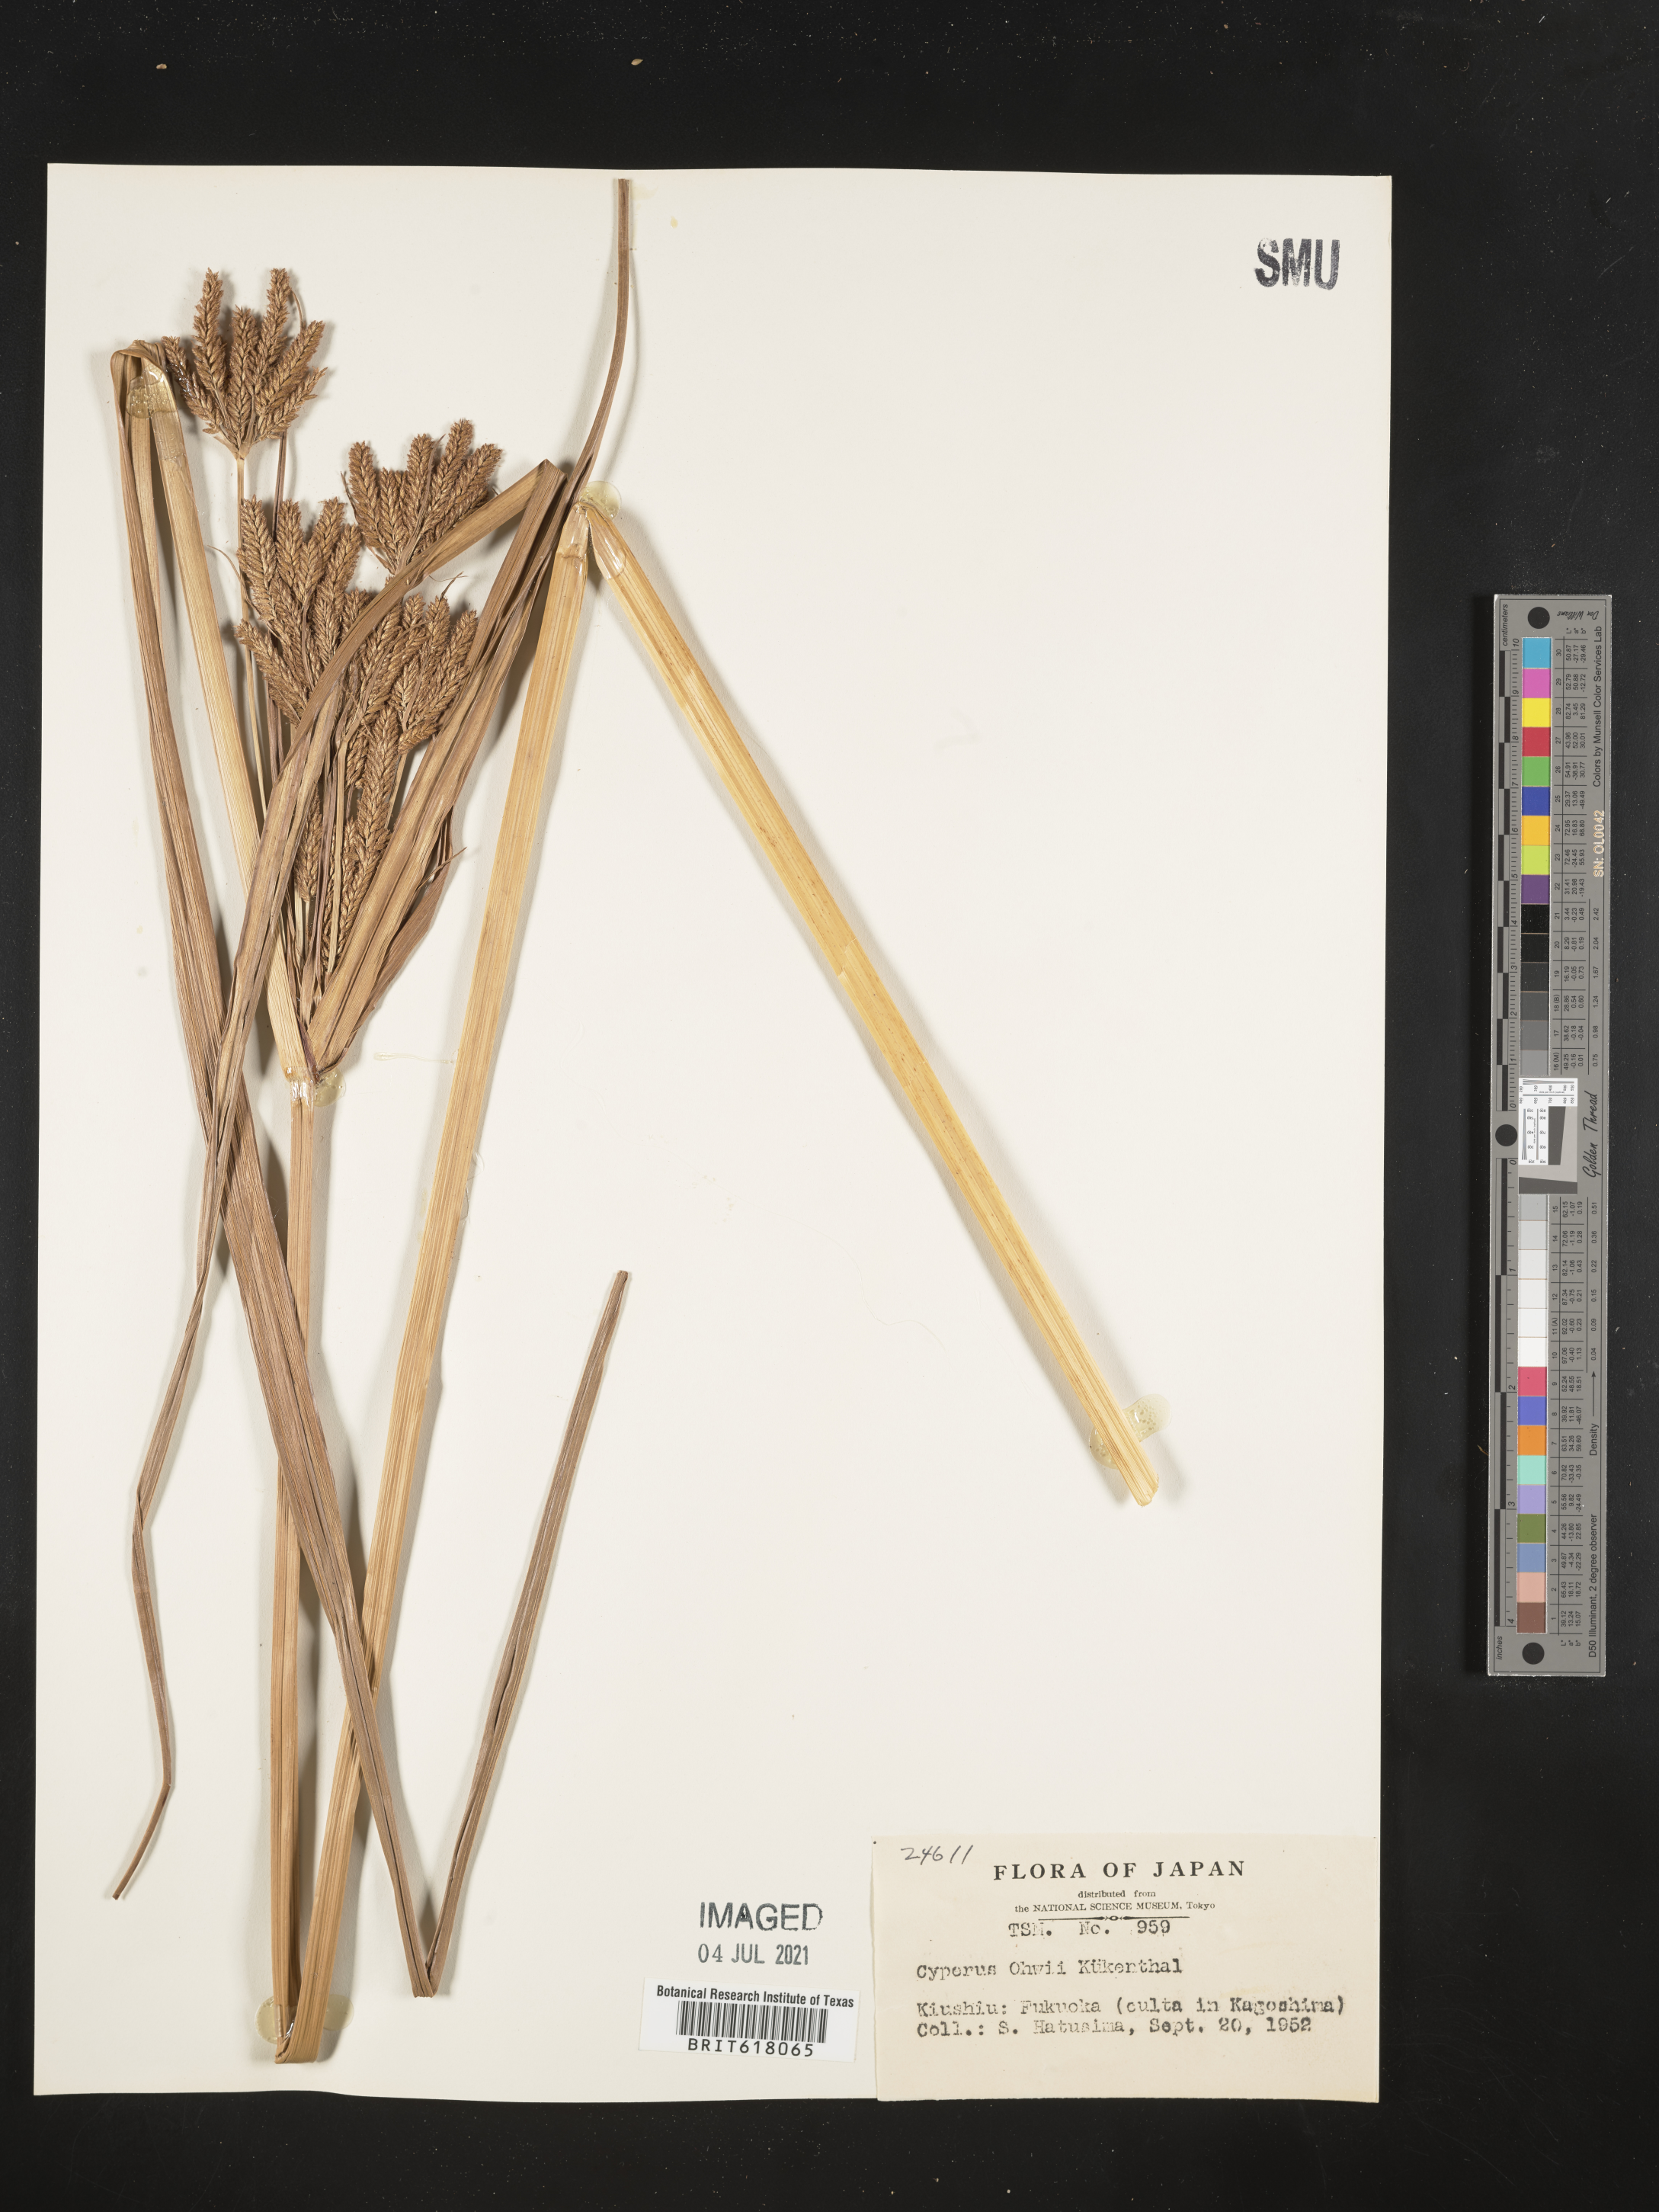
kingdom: Plantae
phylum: Tracheophyta
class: Liliopsida
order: Poales
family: Cyperaceae
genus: Cyperus
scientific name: Cyperus ohwii
